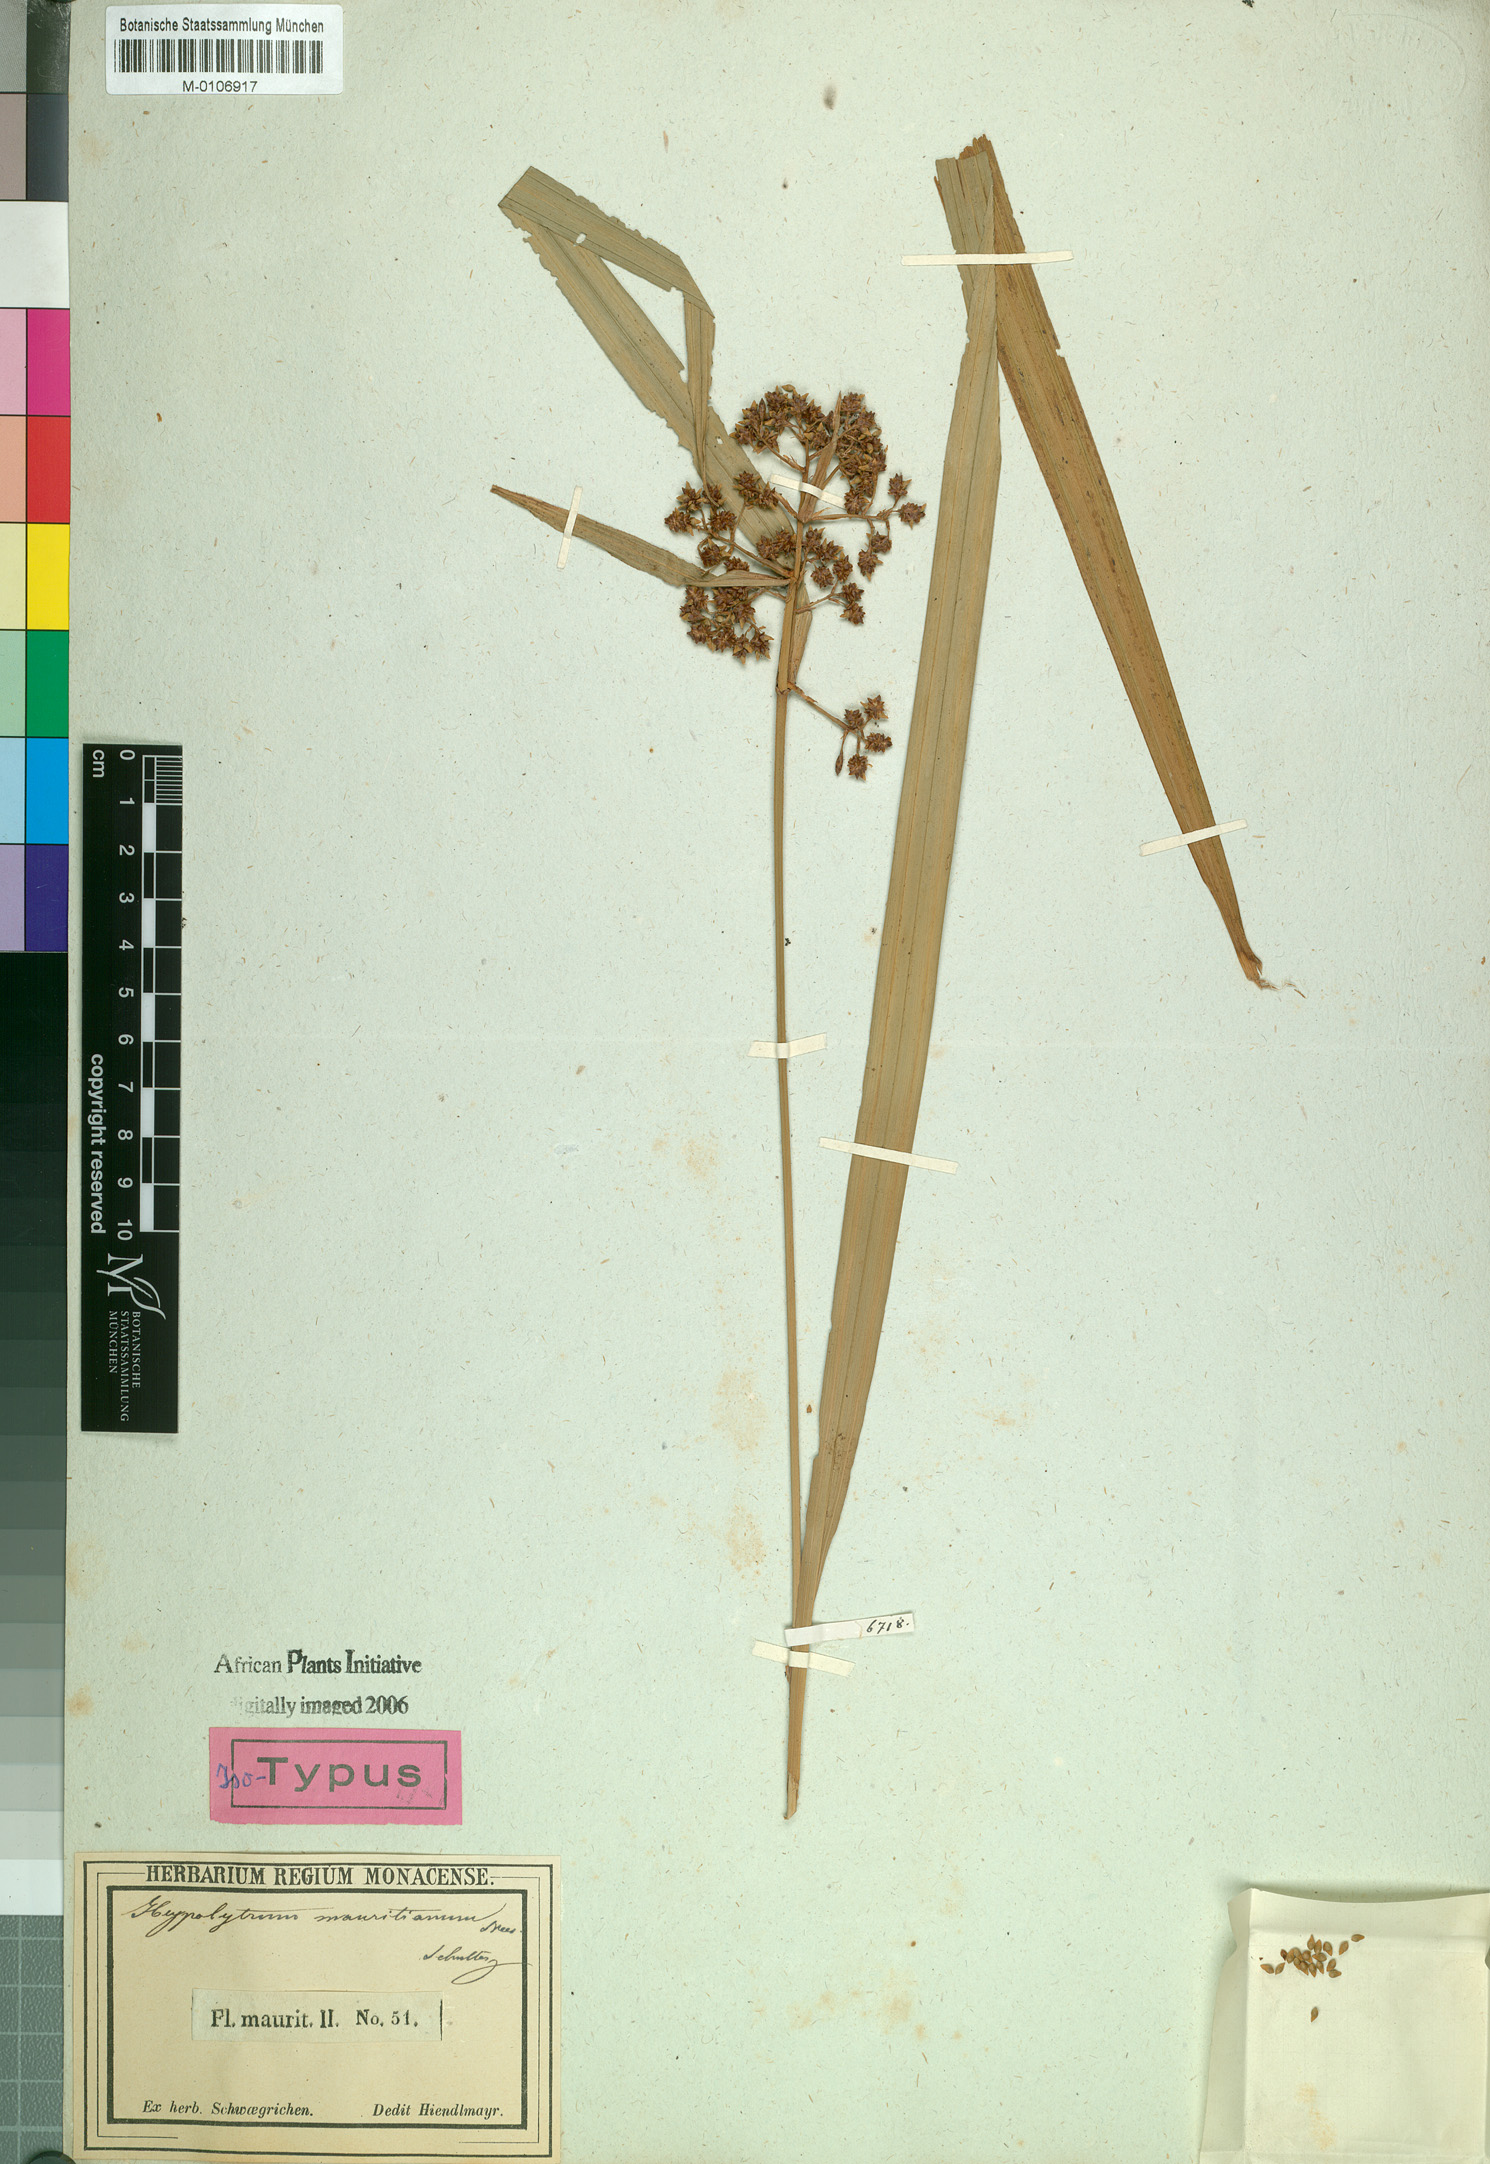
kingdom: Plantae
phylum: Tracheophyta
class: Liliopsida
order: Poales
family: Cyperaceae
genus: Hypolytrum
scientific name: Hypolytrum mauritianum
